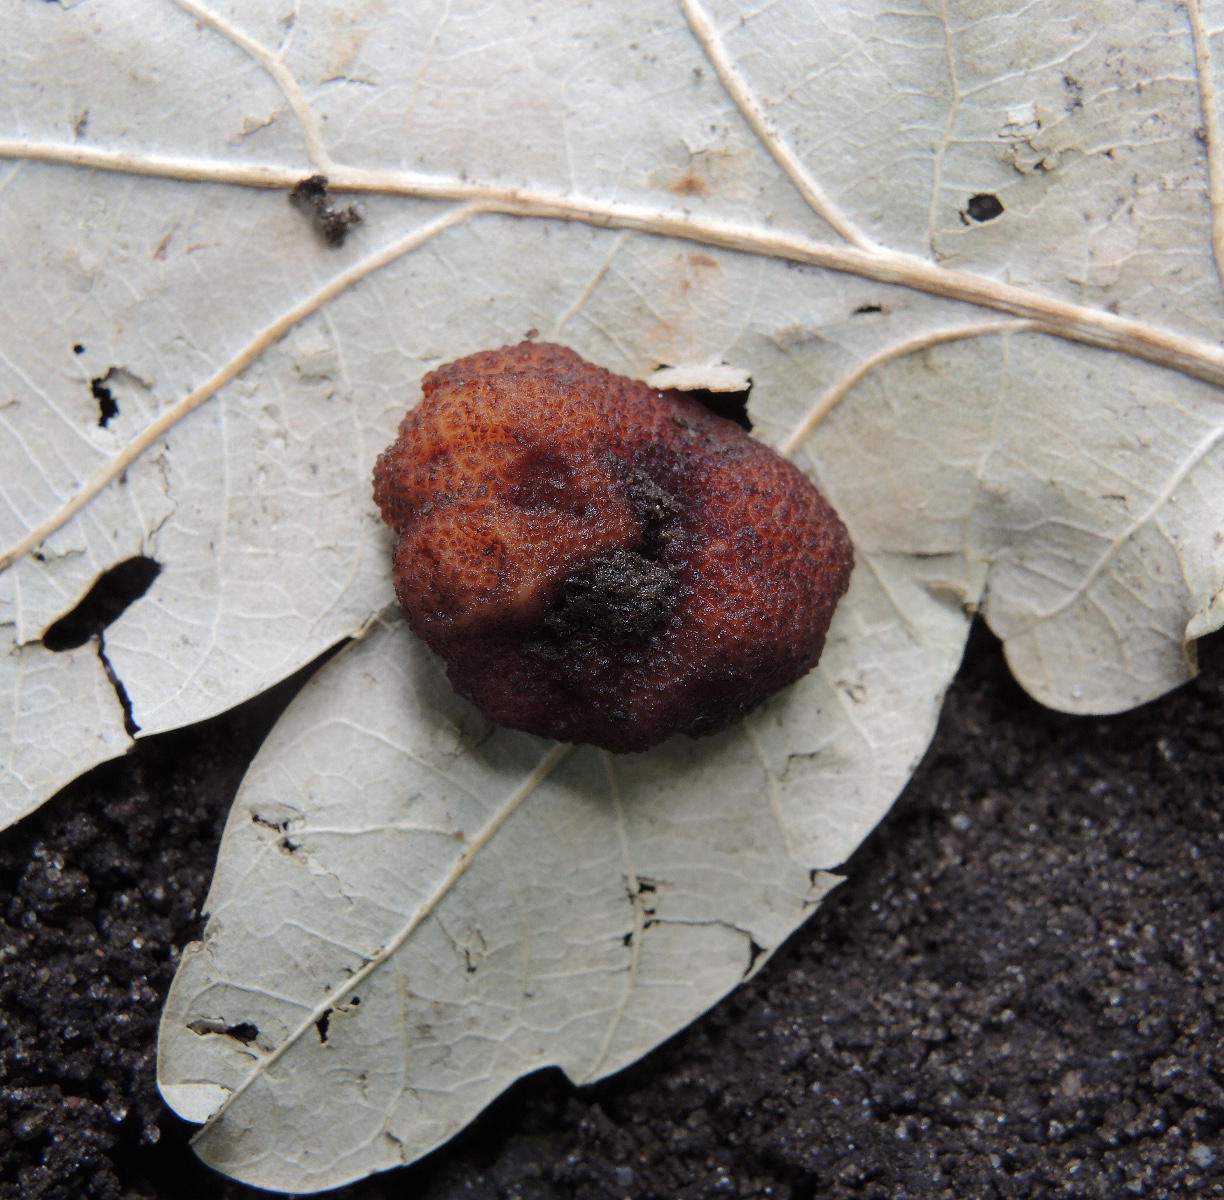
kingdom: Fungi
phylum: Ascomycota
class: Pezizomycetes
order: Pezizales
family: Helvellaceae
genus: Balsamia
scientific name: Balsamia polysperma
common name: bredsporet nøddetrøffel
